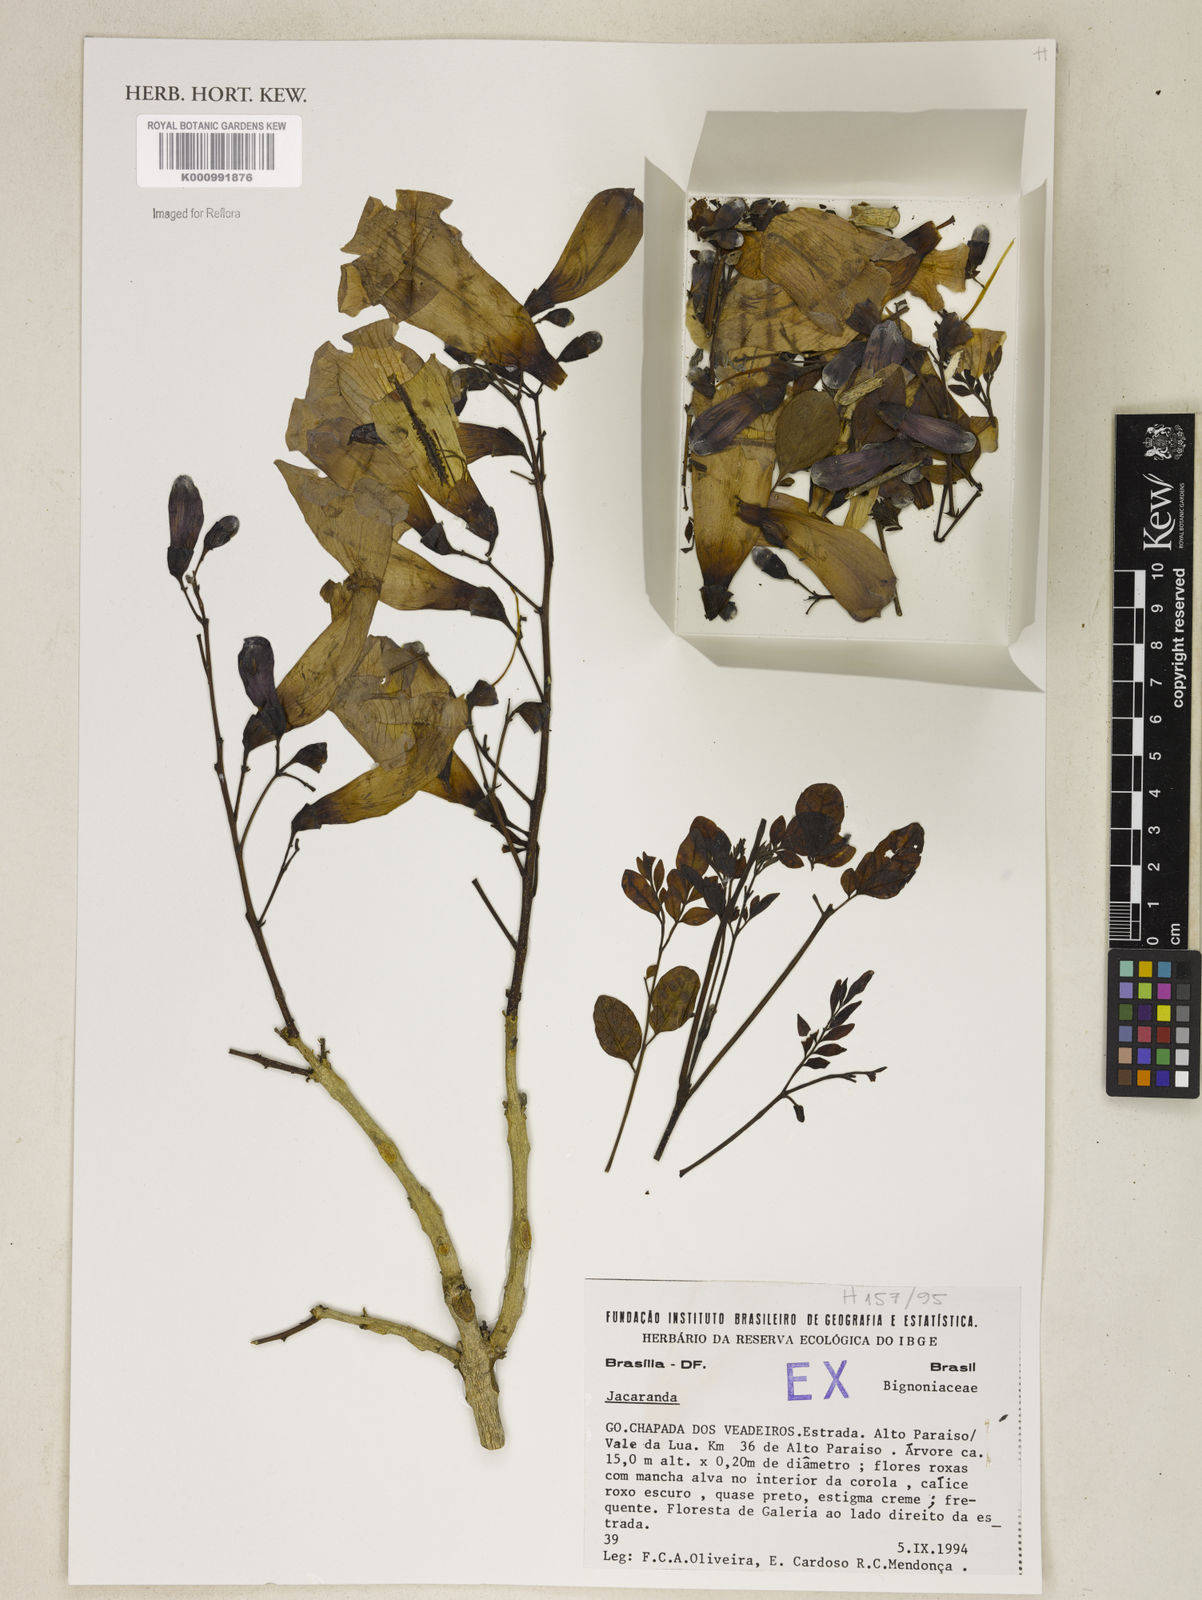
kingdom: Plantae
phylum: Tracheophyta
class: Magnoliopsida
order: Lamiales
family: Bignoniaceae
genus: Jacaranda
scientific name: Jacaranda
